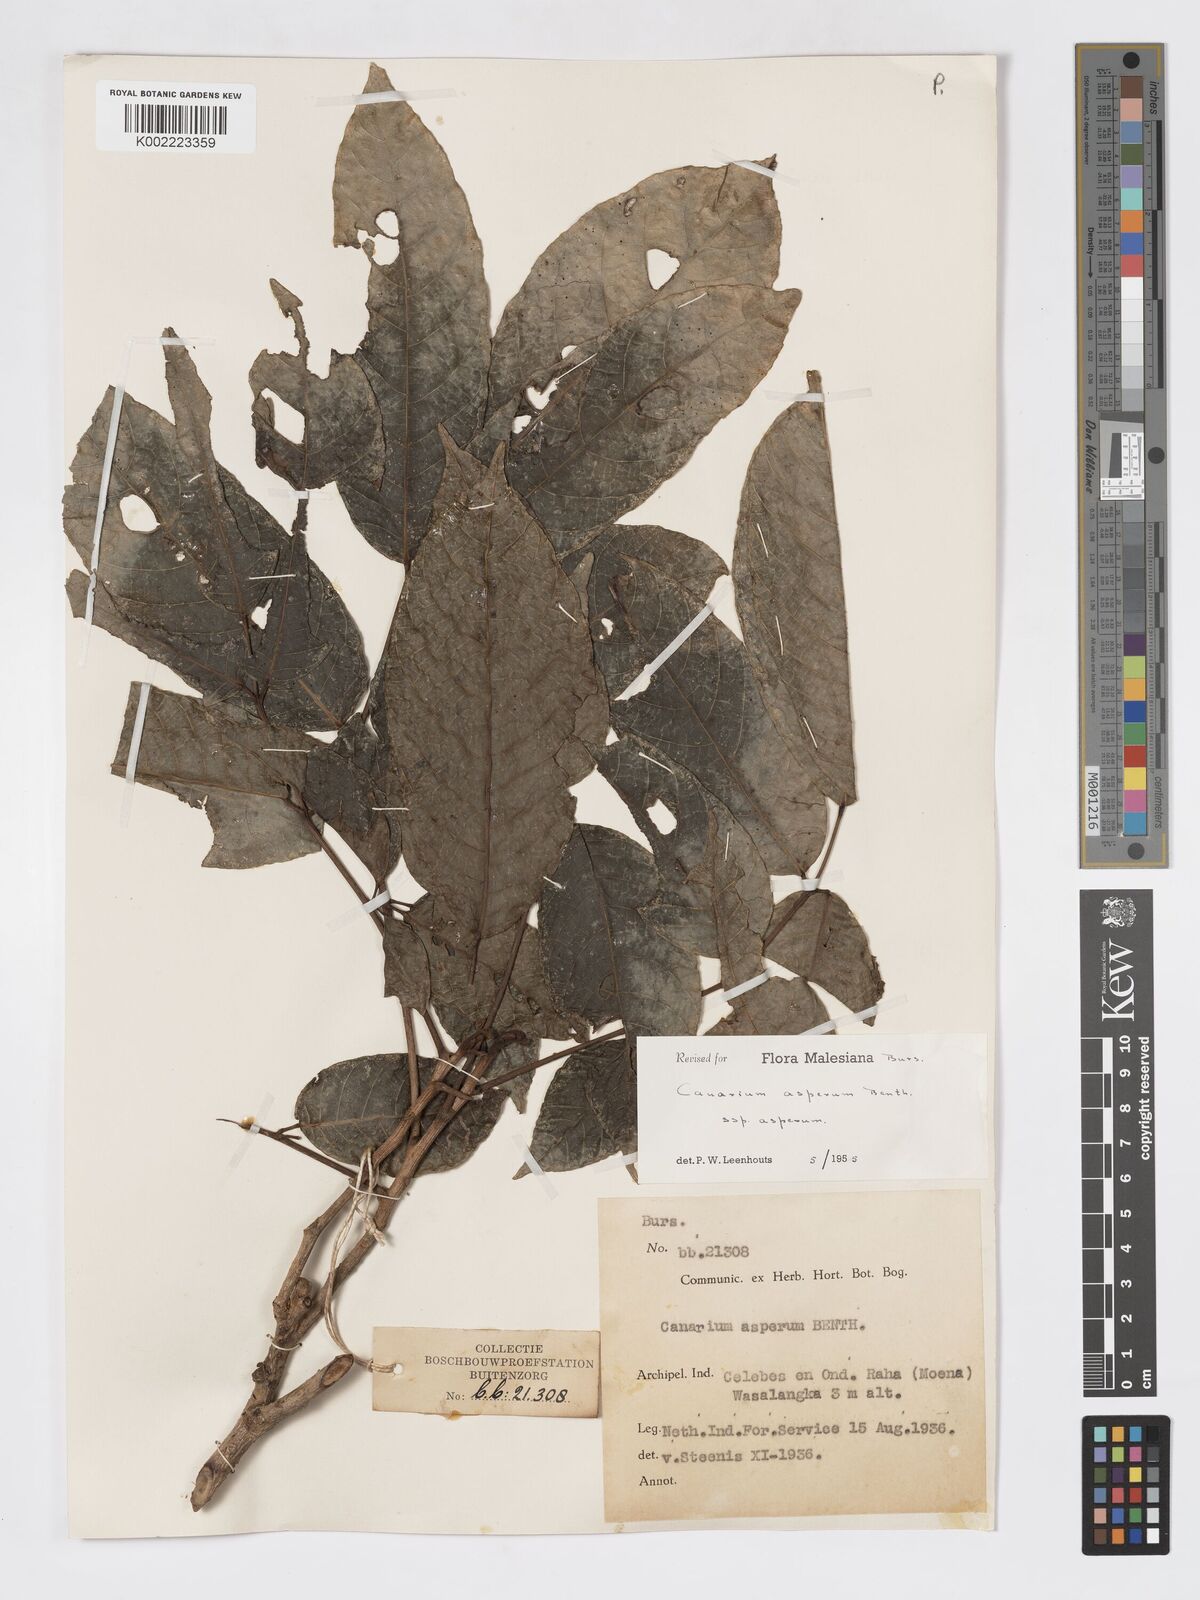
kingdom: Plantae
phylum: Tracheophyta
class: Magnoliopsida
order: Sapindales
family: Burseraceae
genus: Canarium
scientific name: Canarium asperum
